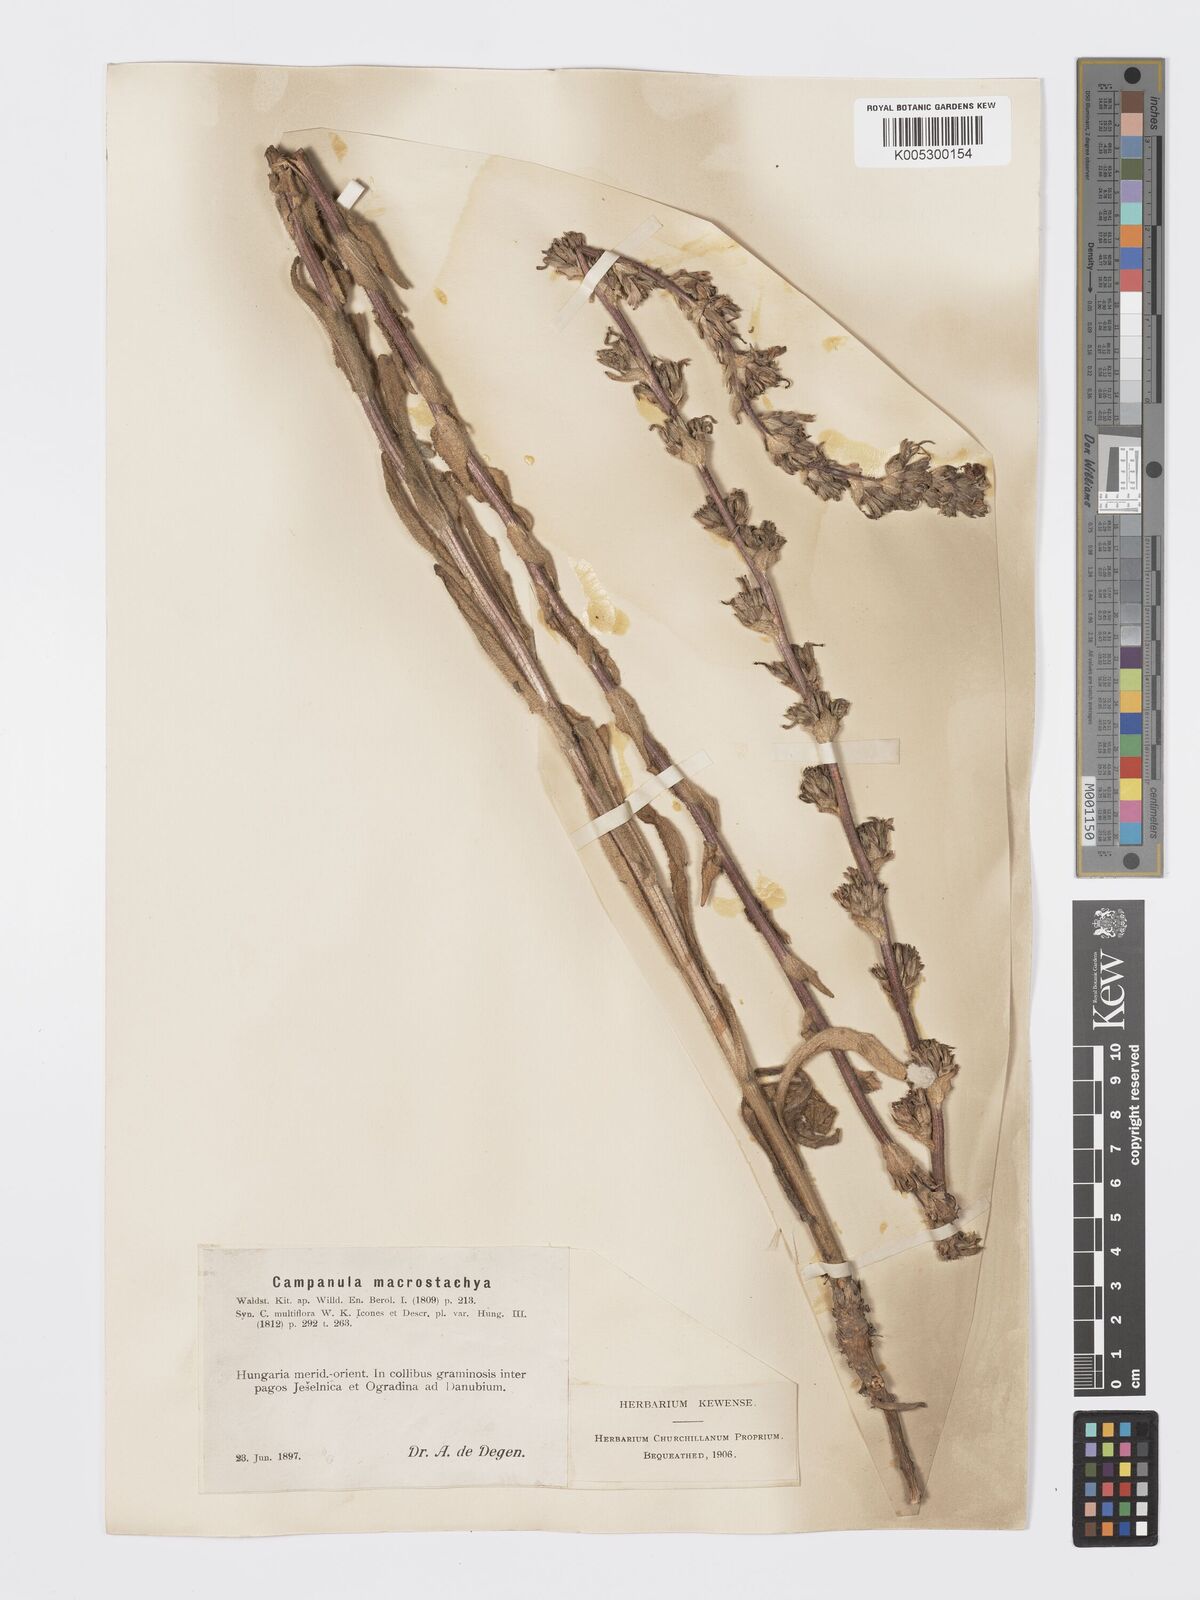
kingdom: Plantae
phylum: Tracheophyta
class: Magnoliopsida
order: Asterales
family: Campanulaceae
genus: Campanula
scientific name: Campanula macrostachya
